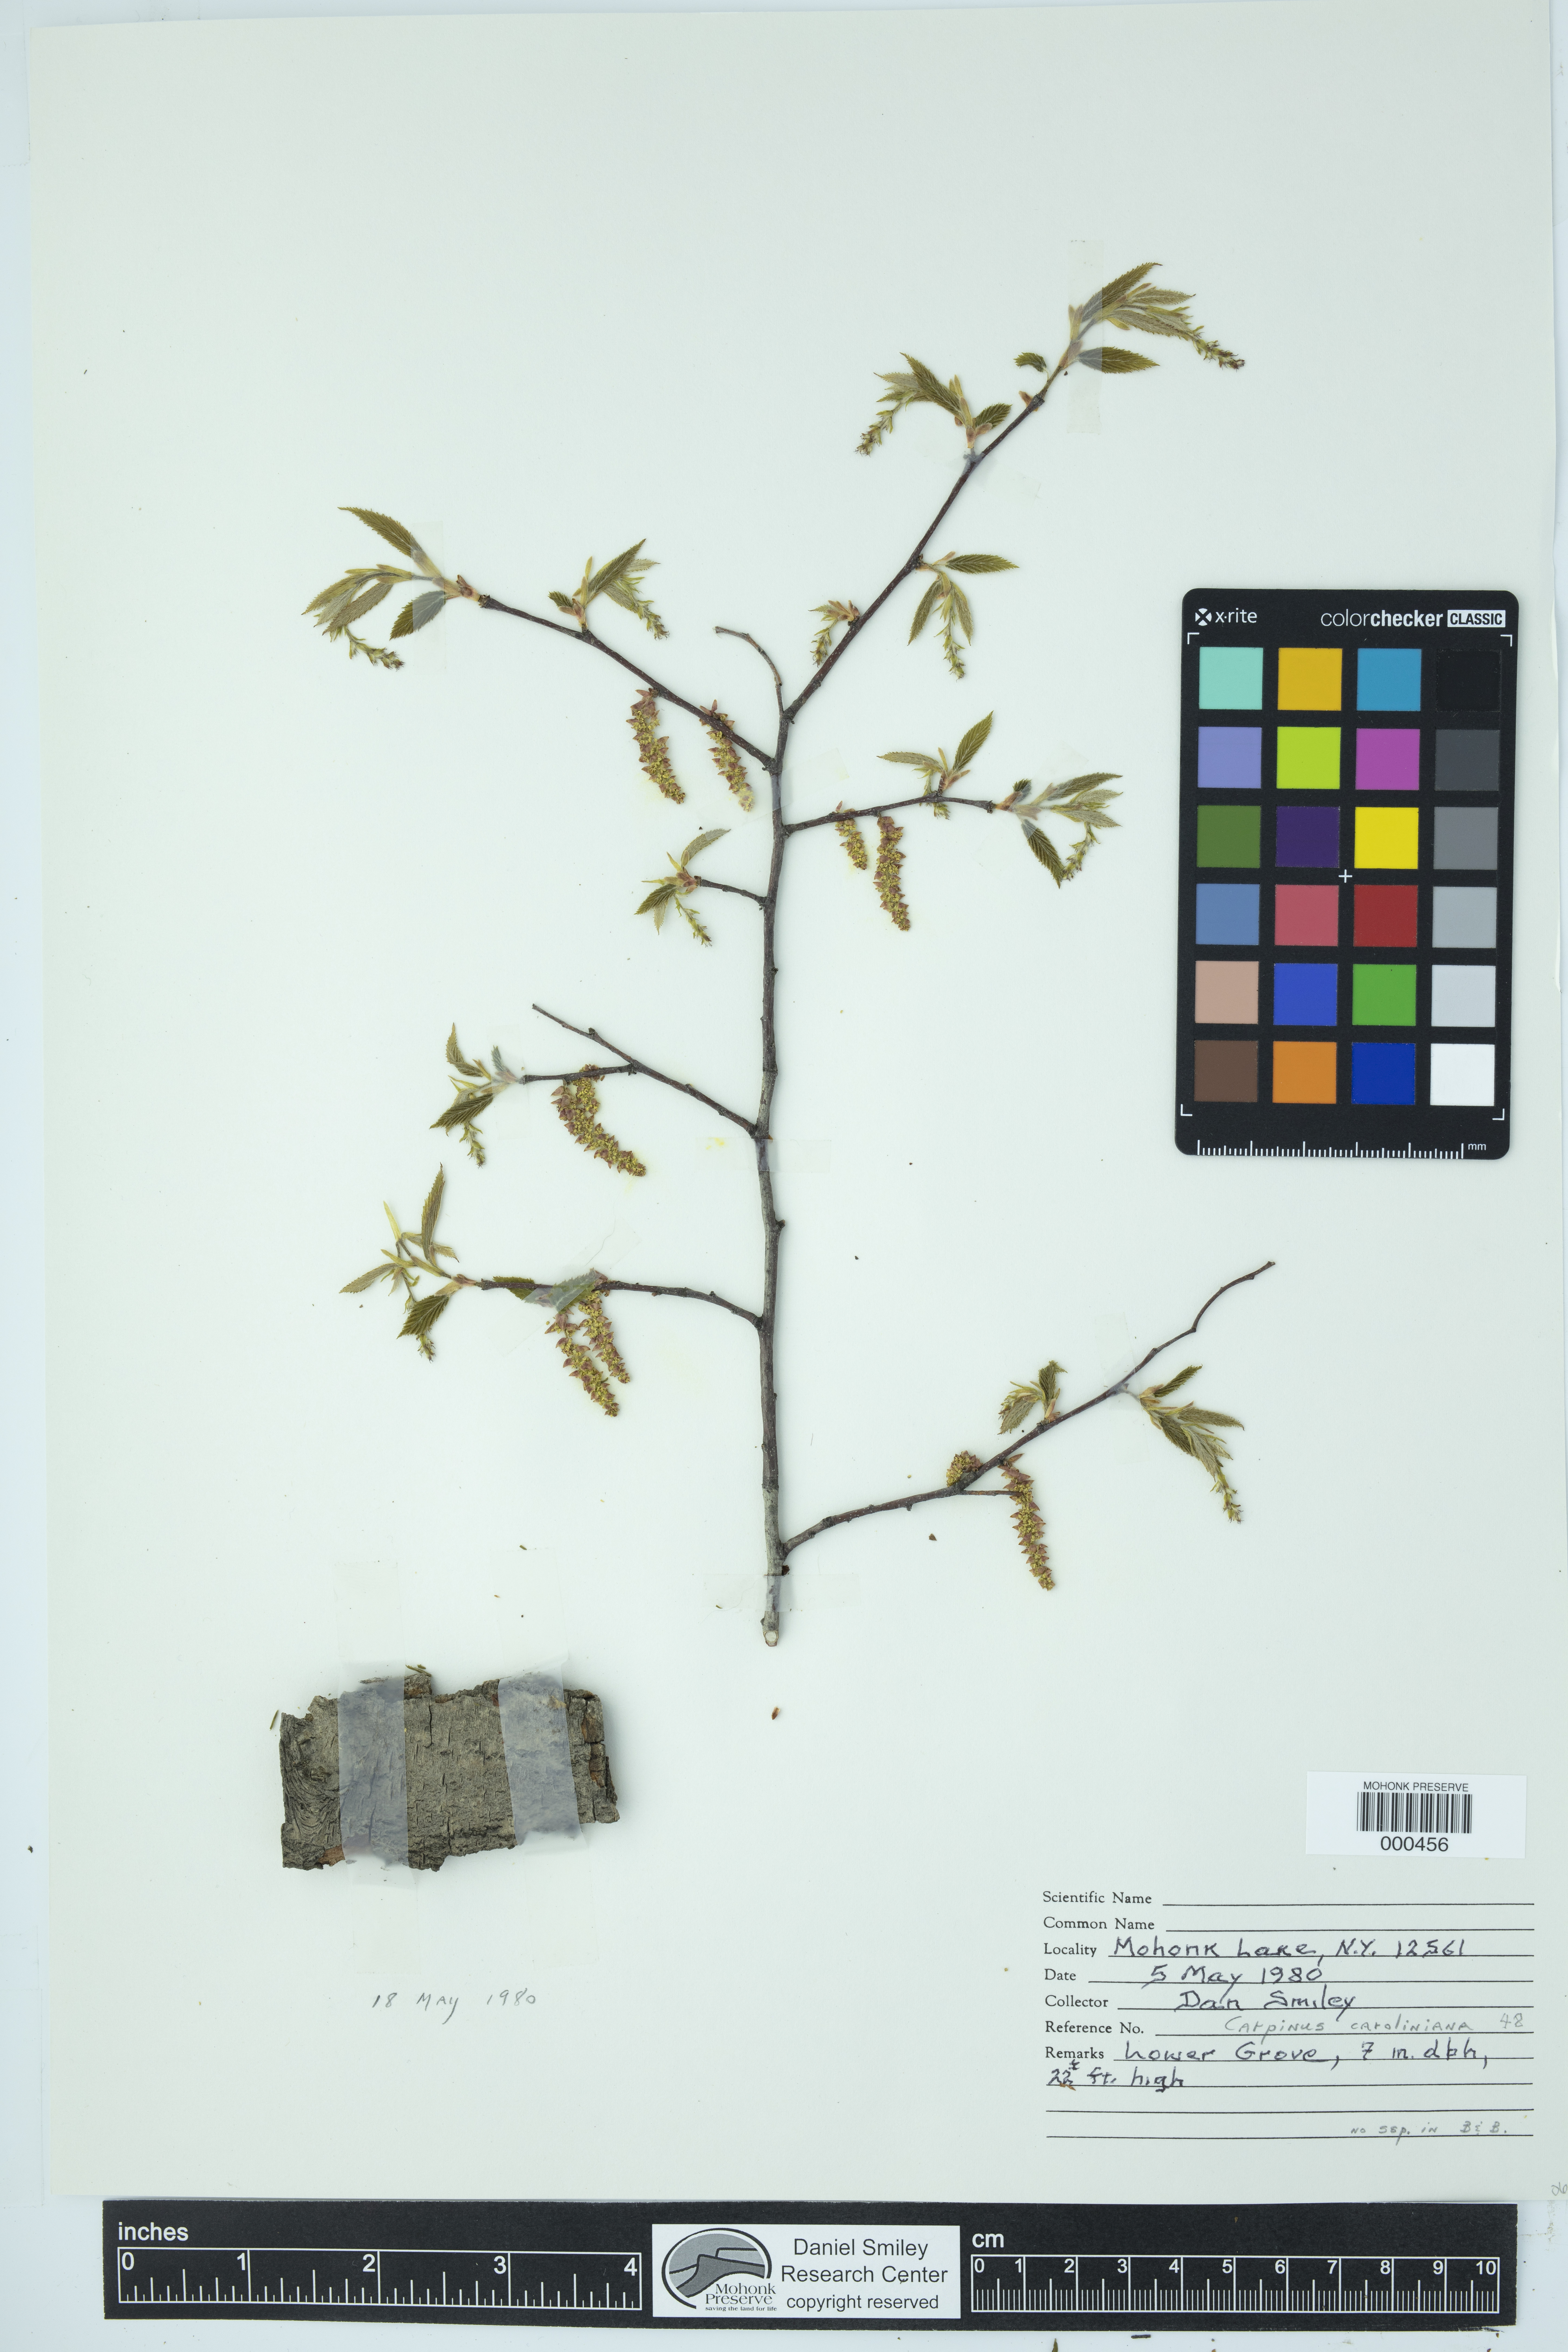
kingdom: Plantae
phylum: Tracheophyta
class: Magnoliopsida
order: Fagales
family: Betulaceae
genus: Carpinus
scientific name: Carpinus caroliniana
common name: American hornbeam
